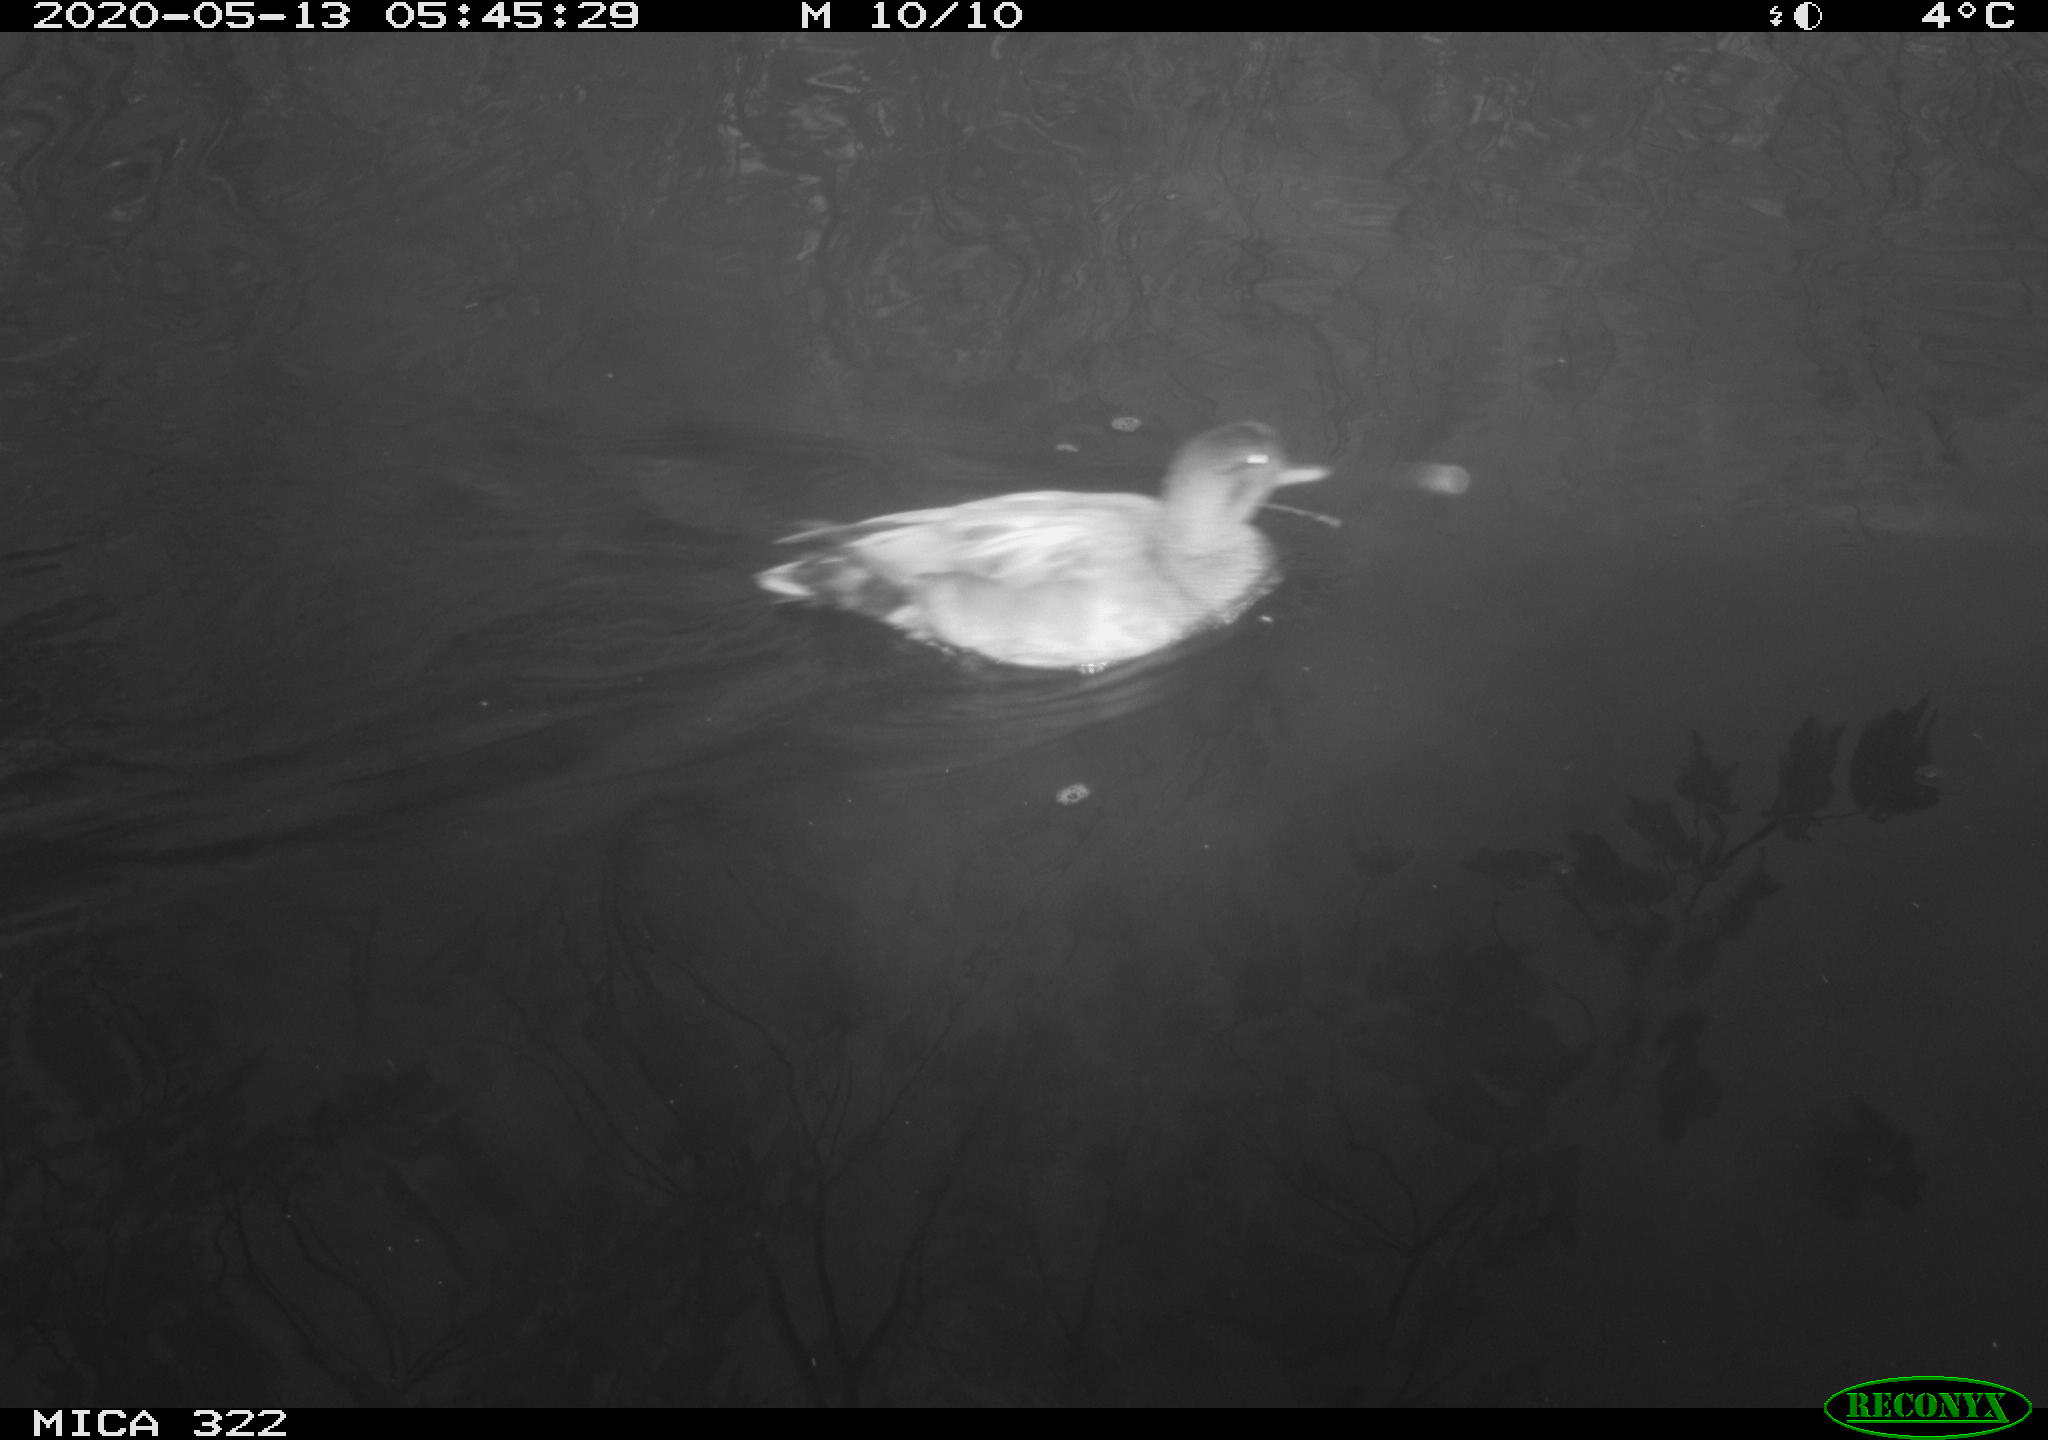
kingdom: Animalia
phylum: Chordata
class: Aves
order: Anseriformes
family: Anatidae
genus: Mareca
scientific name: Mareca strepera
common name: Gadwall
